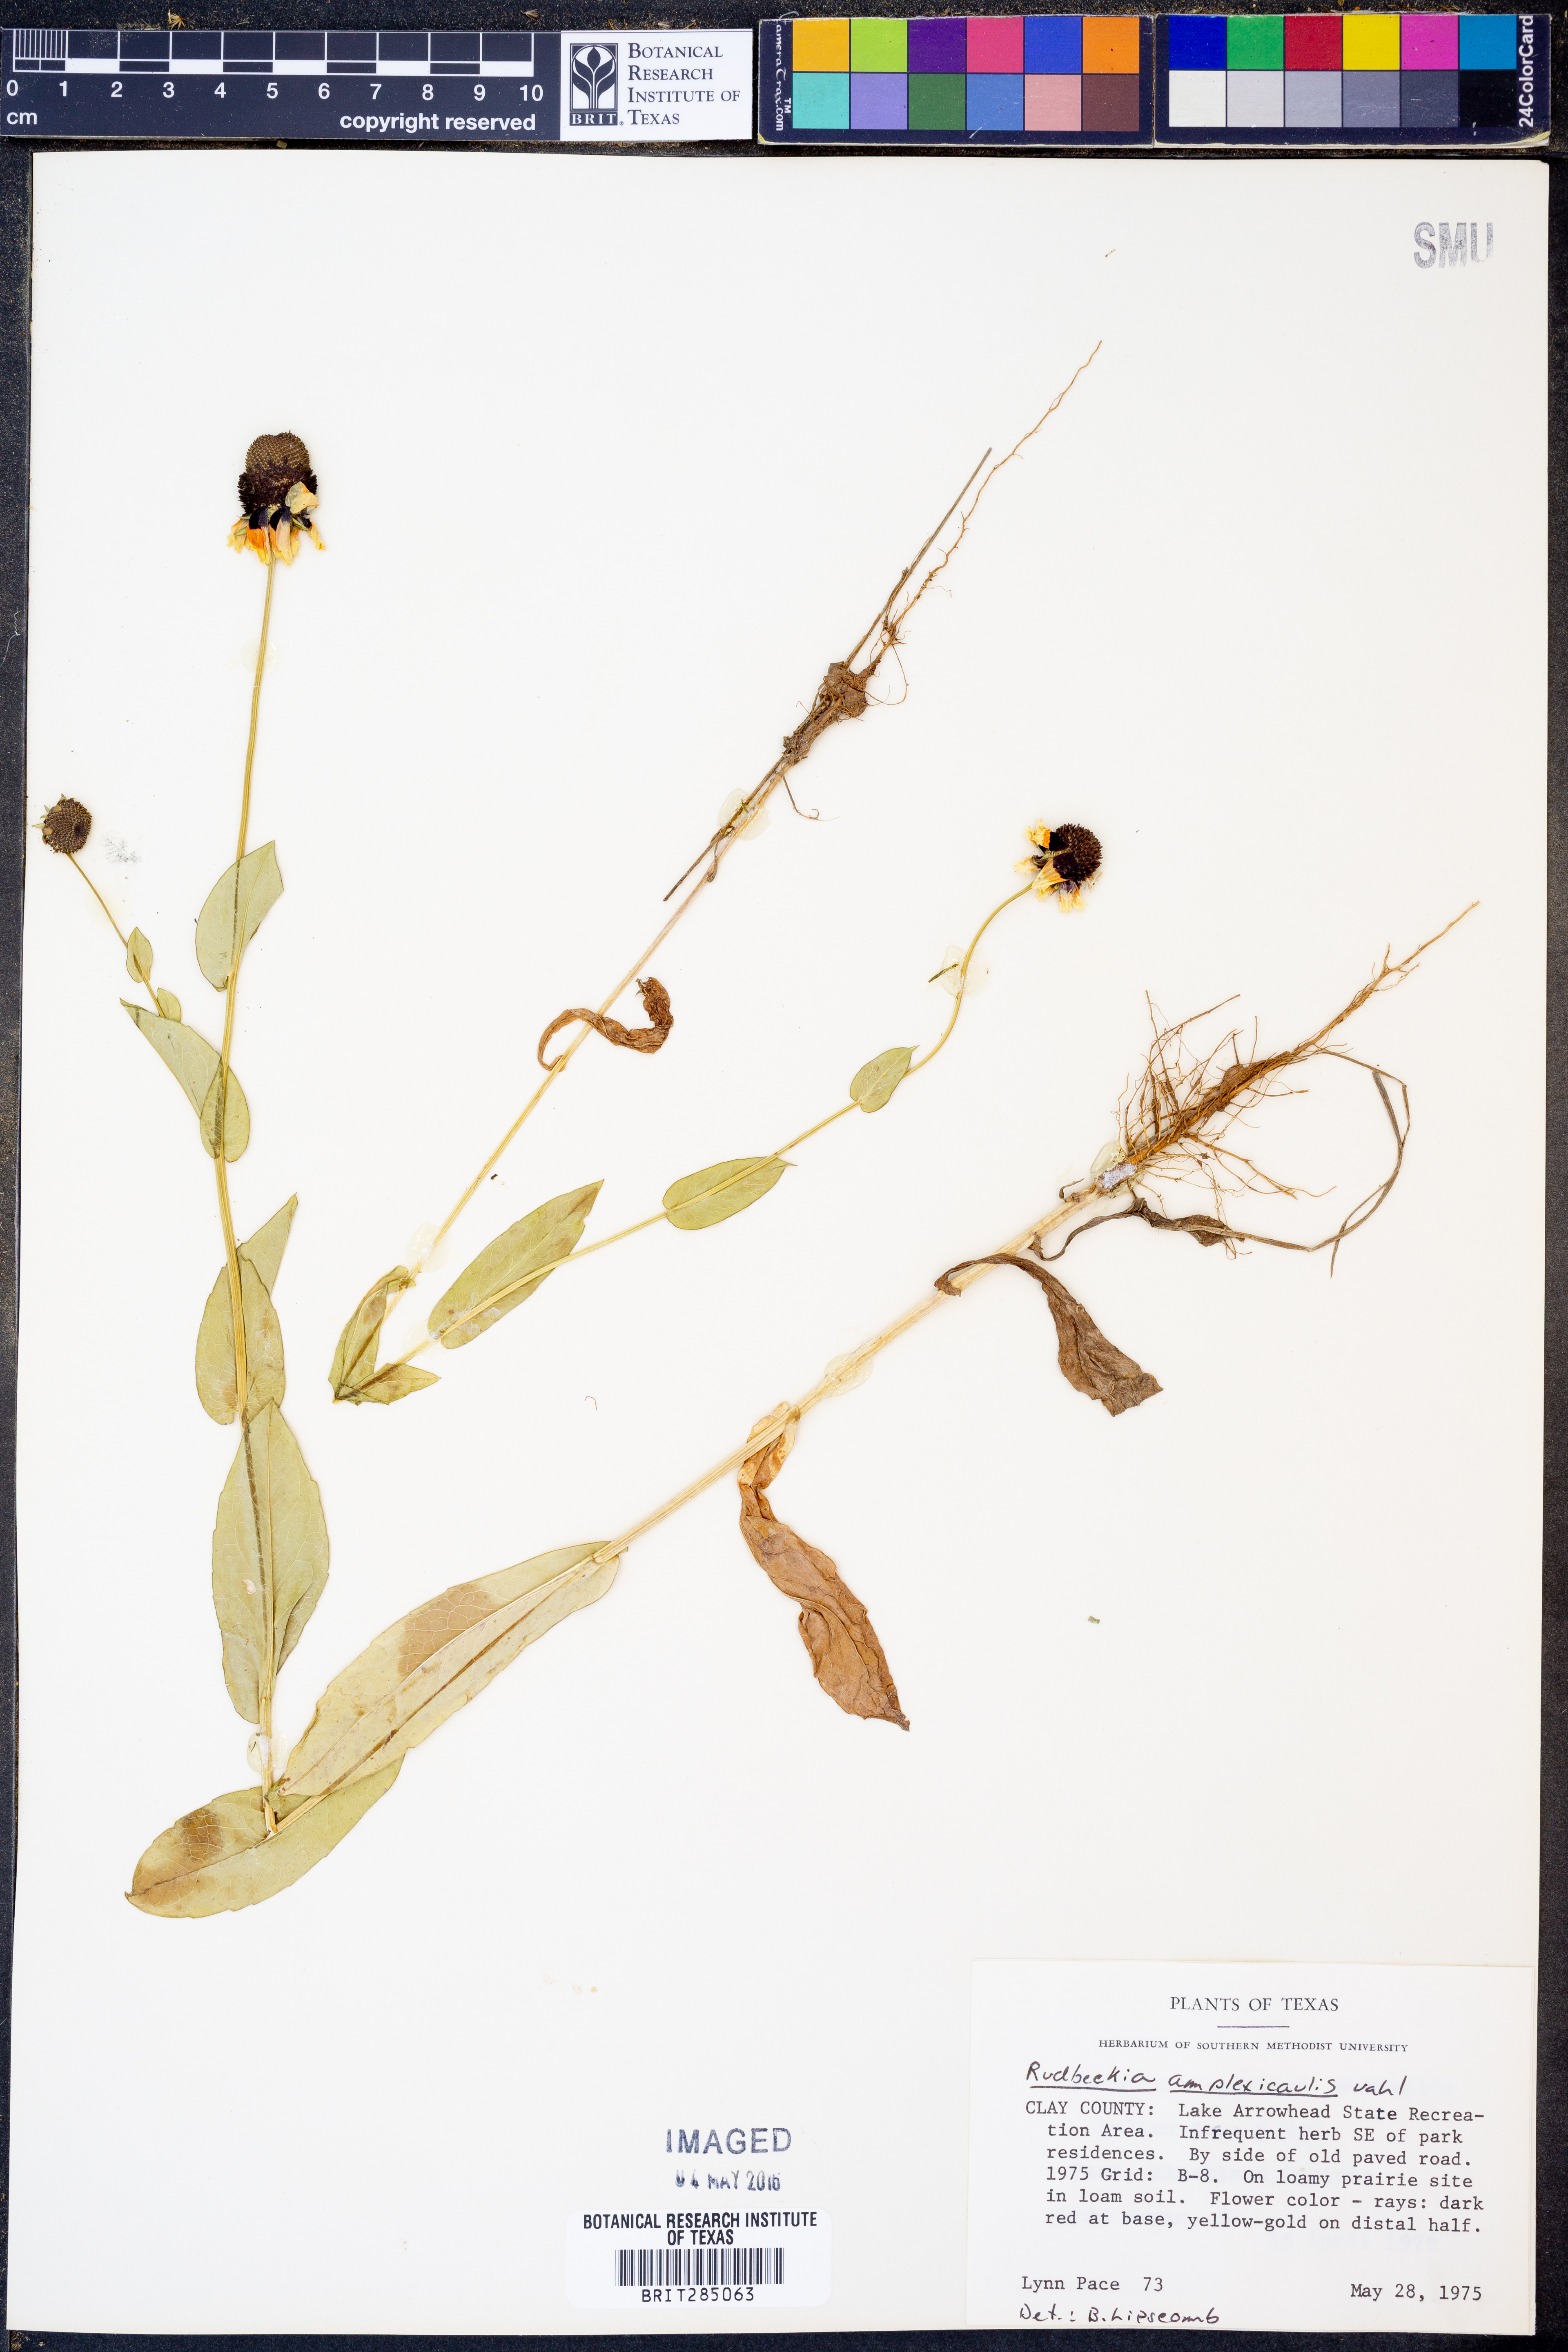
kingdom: Plantae
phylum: Tracheophyta
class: Magnoliopsida
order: Asterales
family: Asteraceae
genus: Rudbeckia
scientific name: Rudbeckia amplexicaulis
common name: Clasping-leaf coneflower
